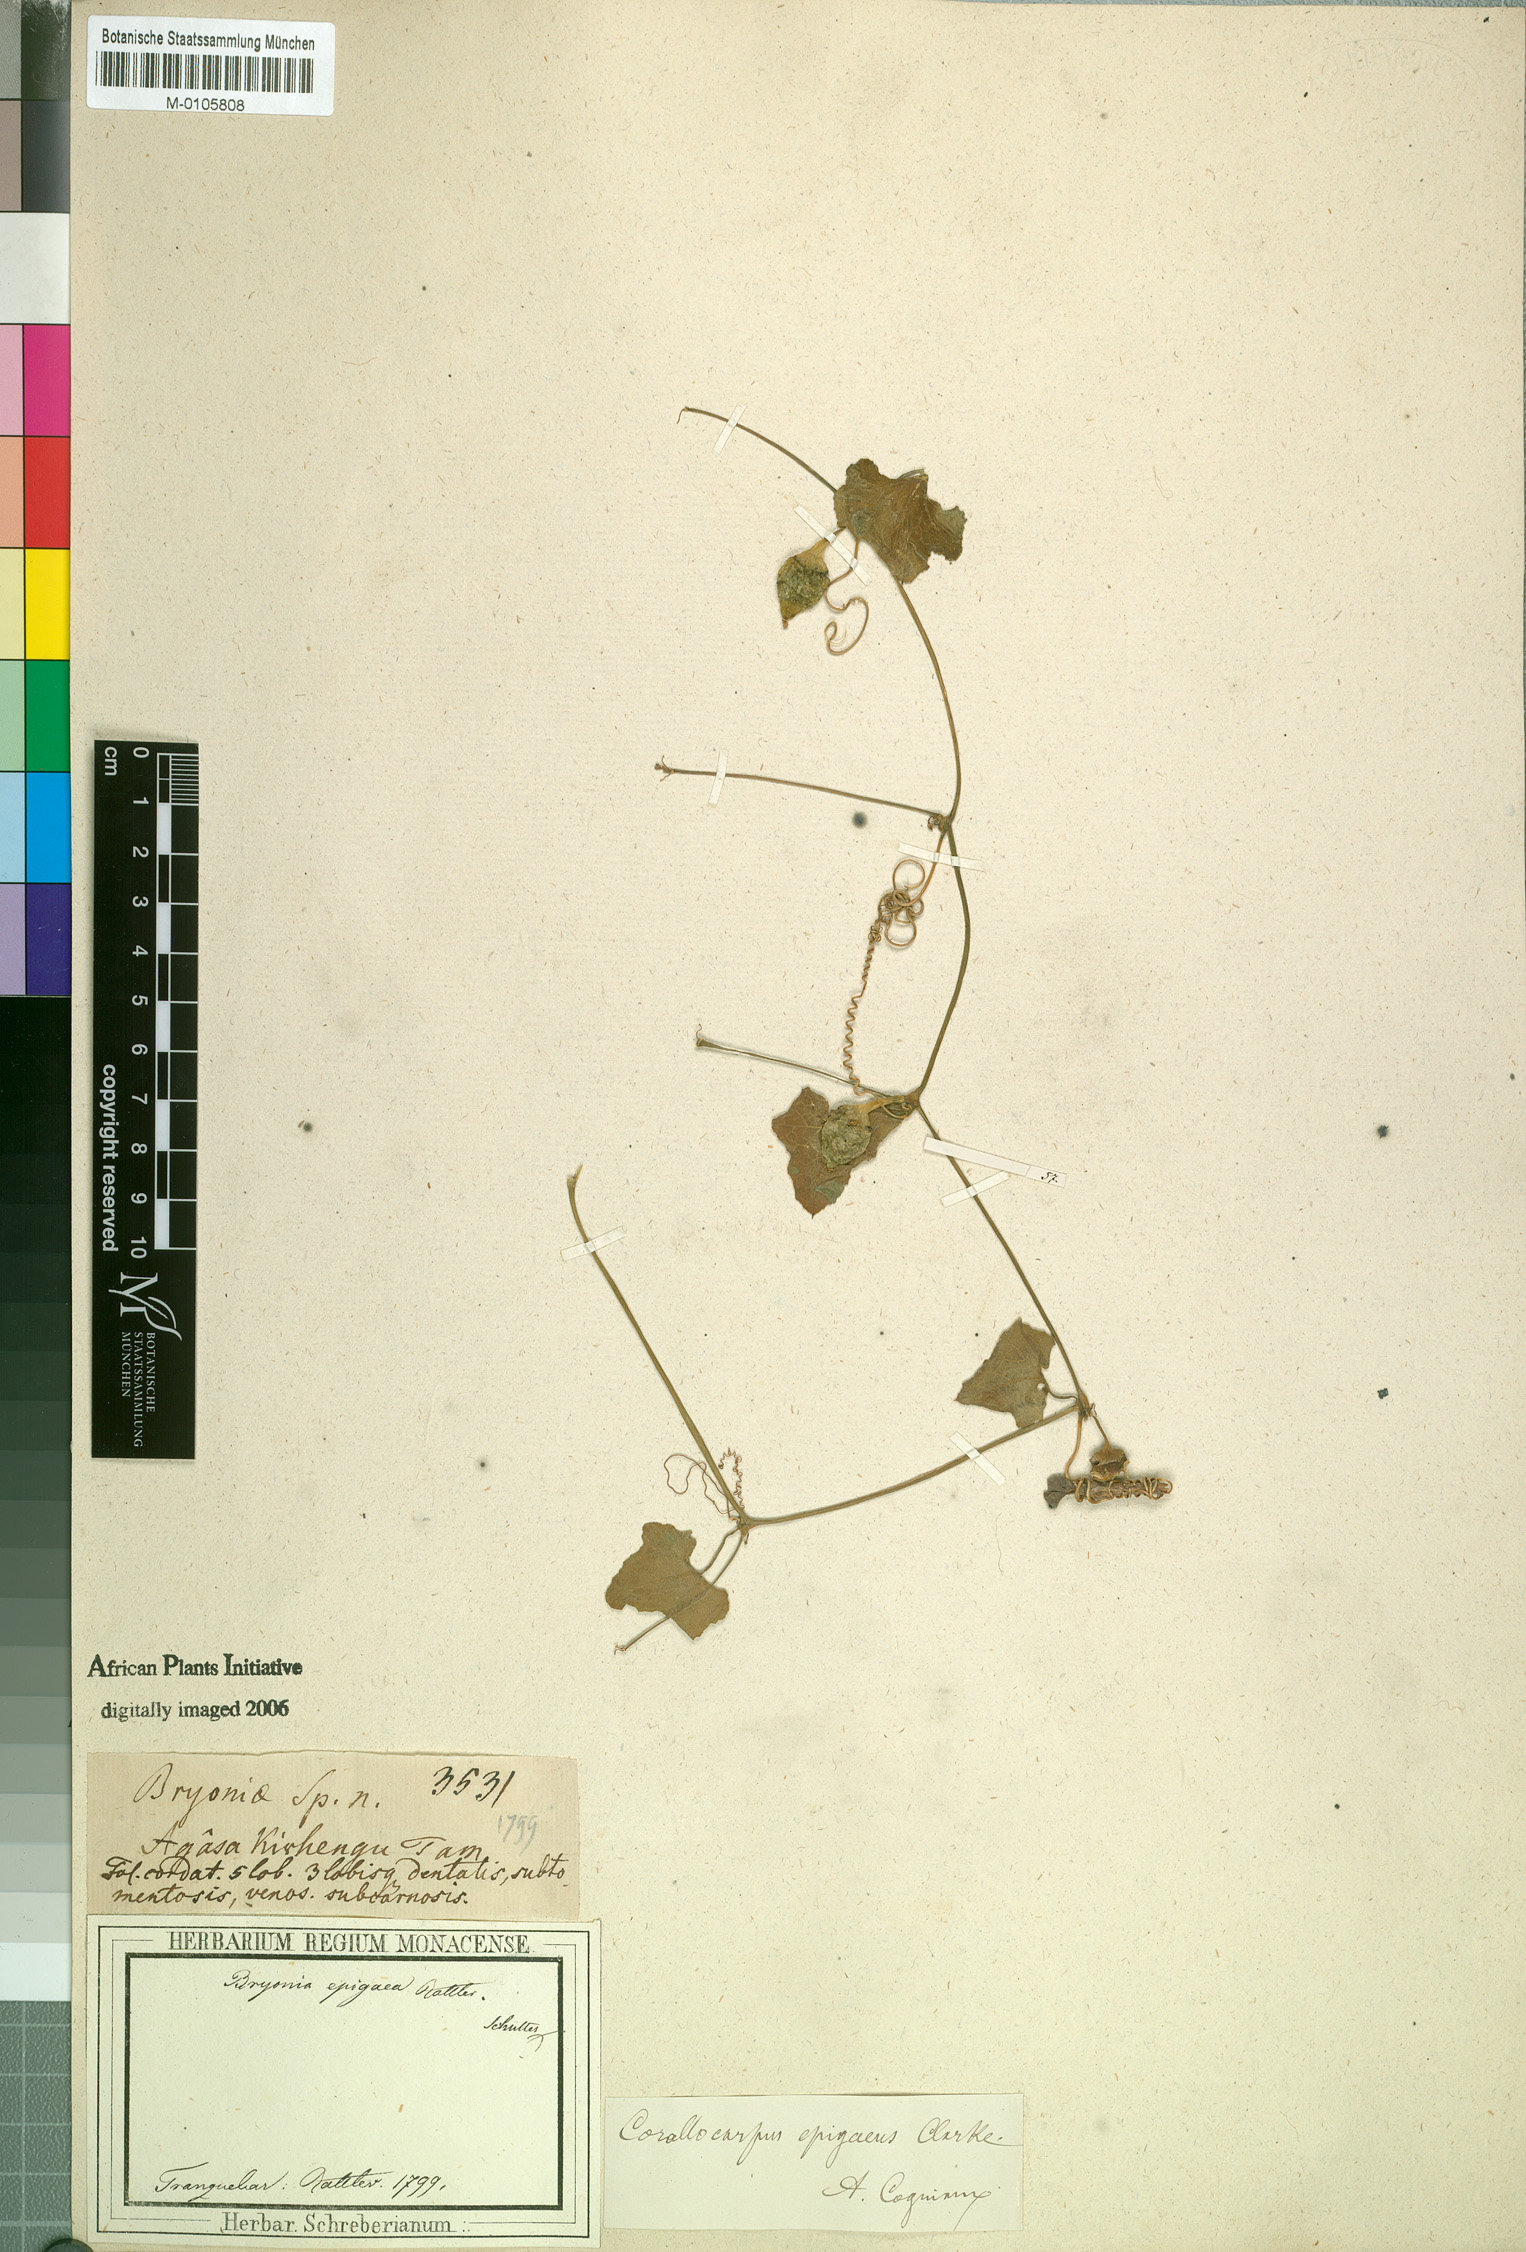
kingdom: Plantae
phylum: Tracheophyta
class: Magnoliopsida
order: Cucurbitales
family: Cucurbitaceae
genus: Corallocarpus
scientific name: Corallocarpus epigaeus
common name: Indian bryonia
